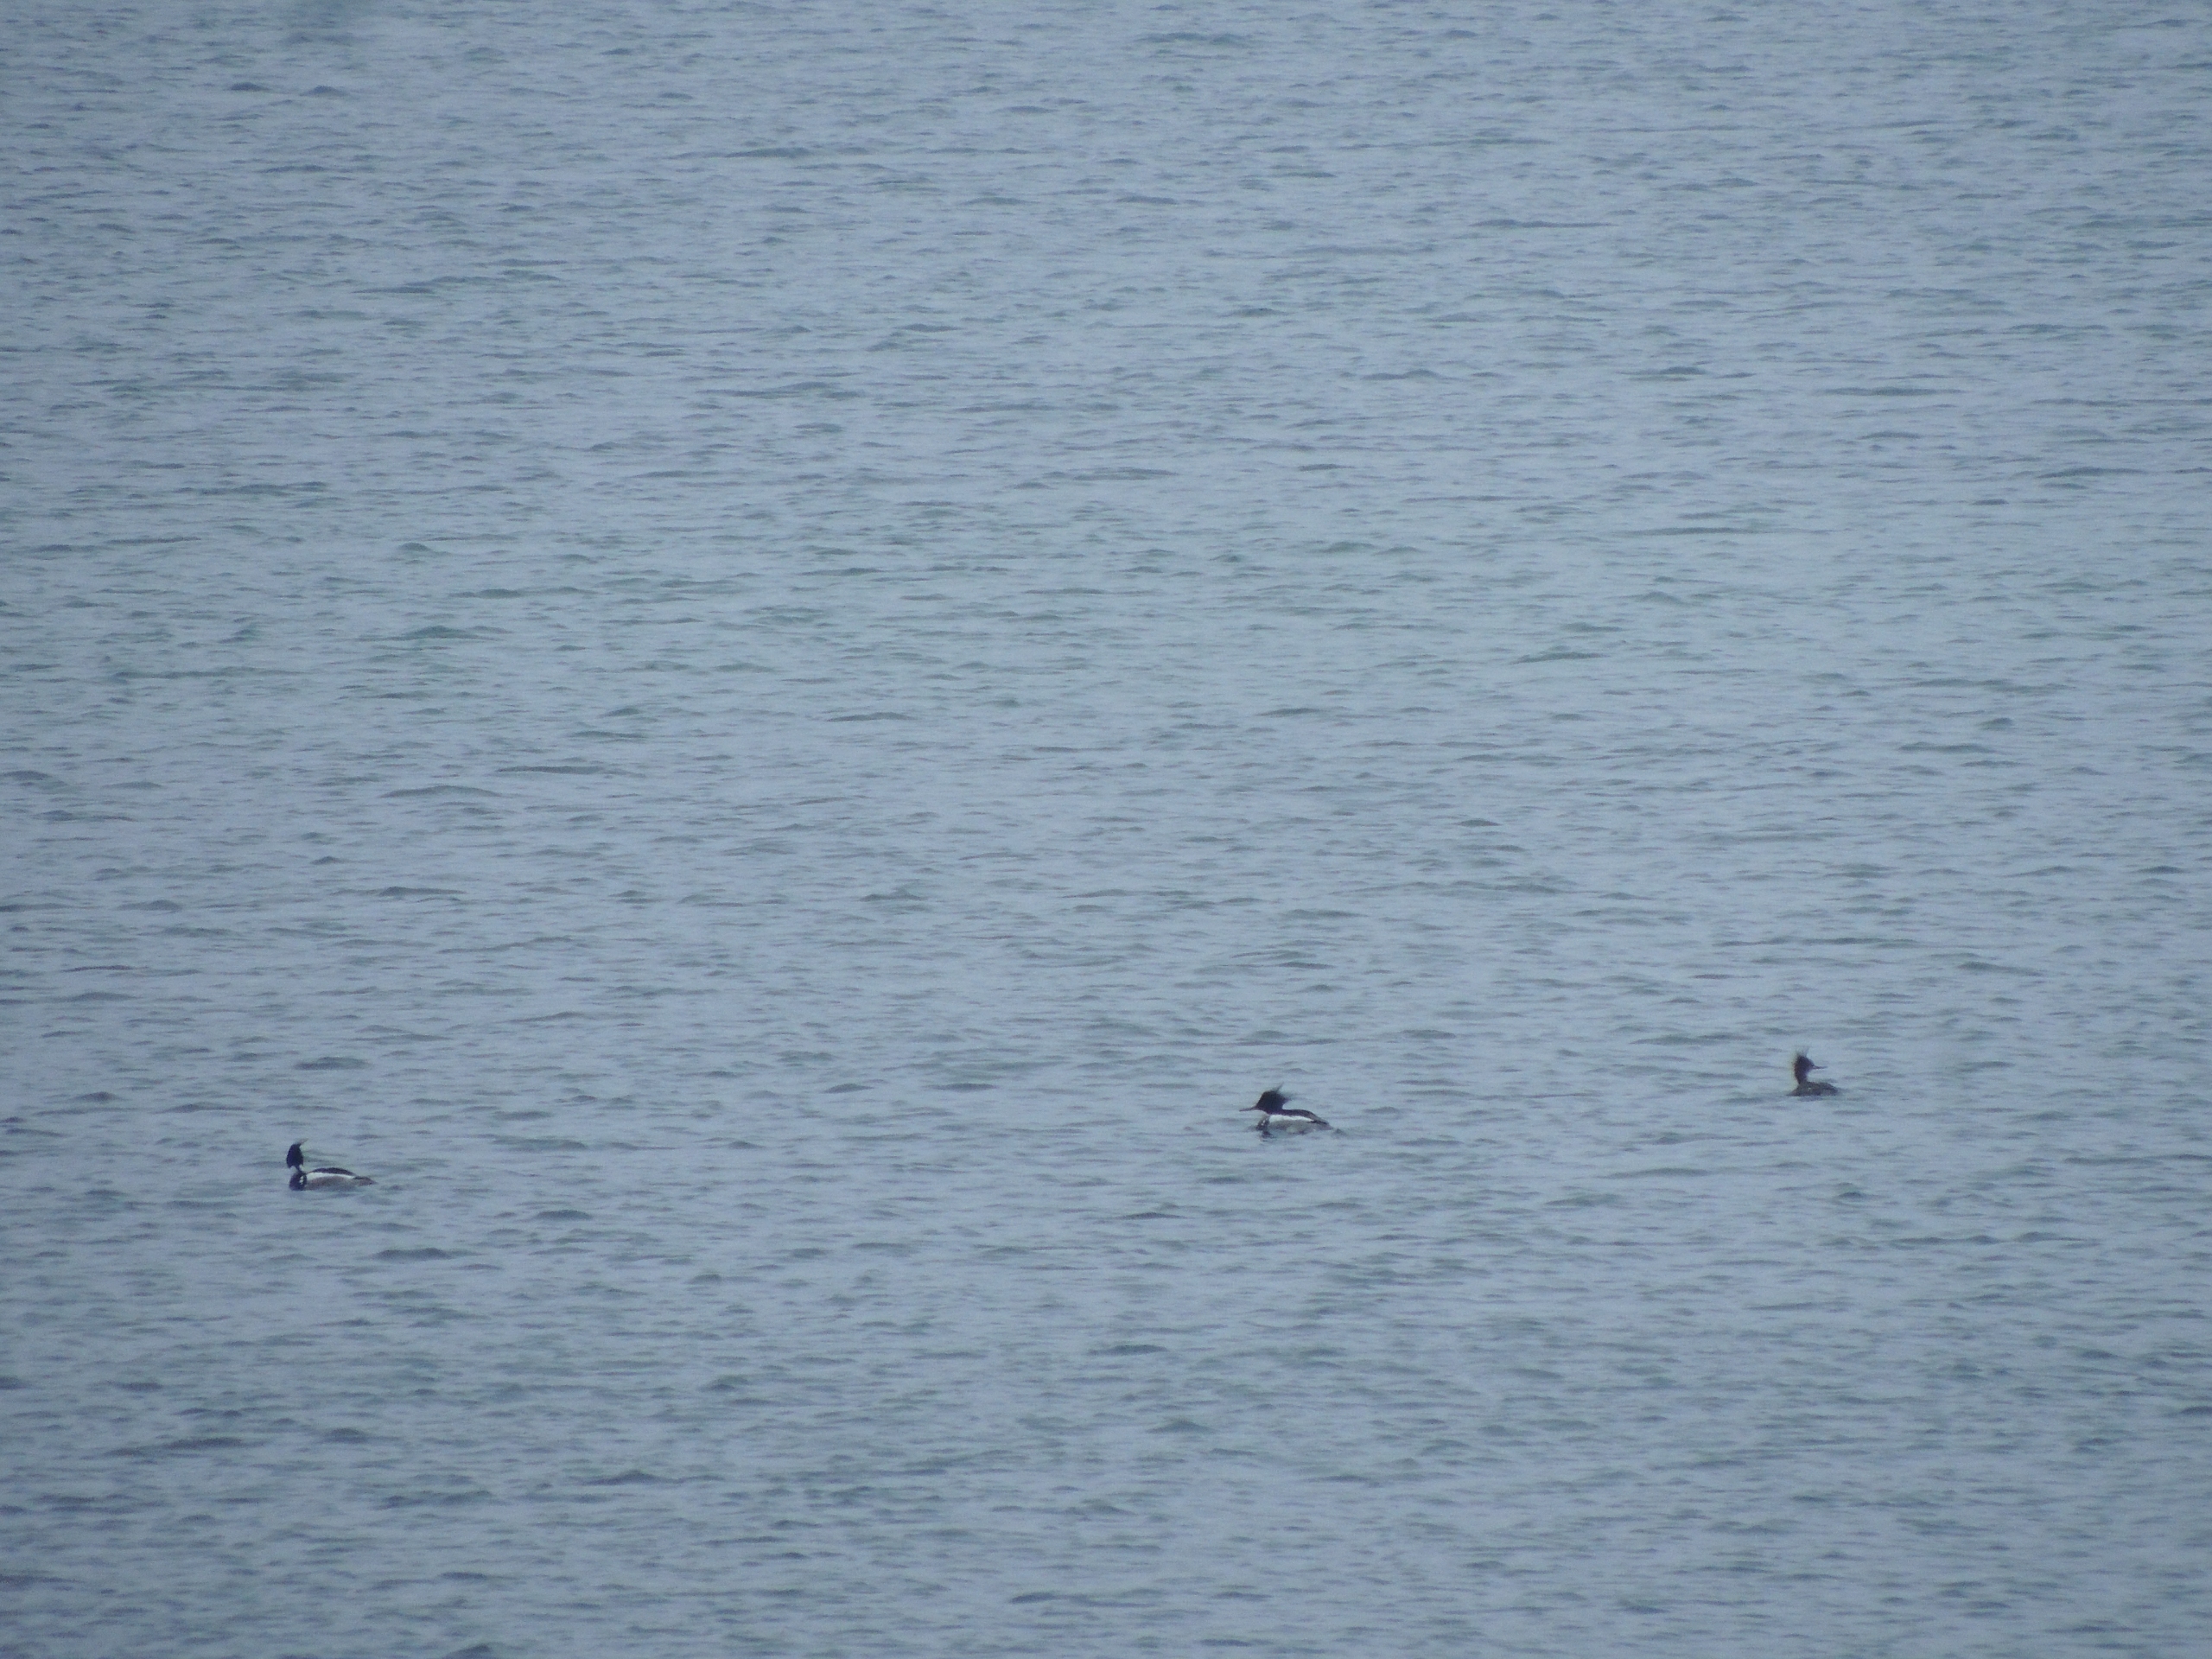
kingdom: Animalia
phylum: Chordata
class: Aves
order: Anseriformes
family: Anatidae
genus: Mergus
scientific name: Mergus serrator
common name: Toppet skallesluger
